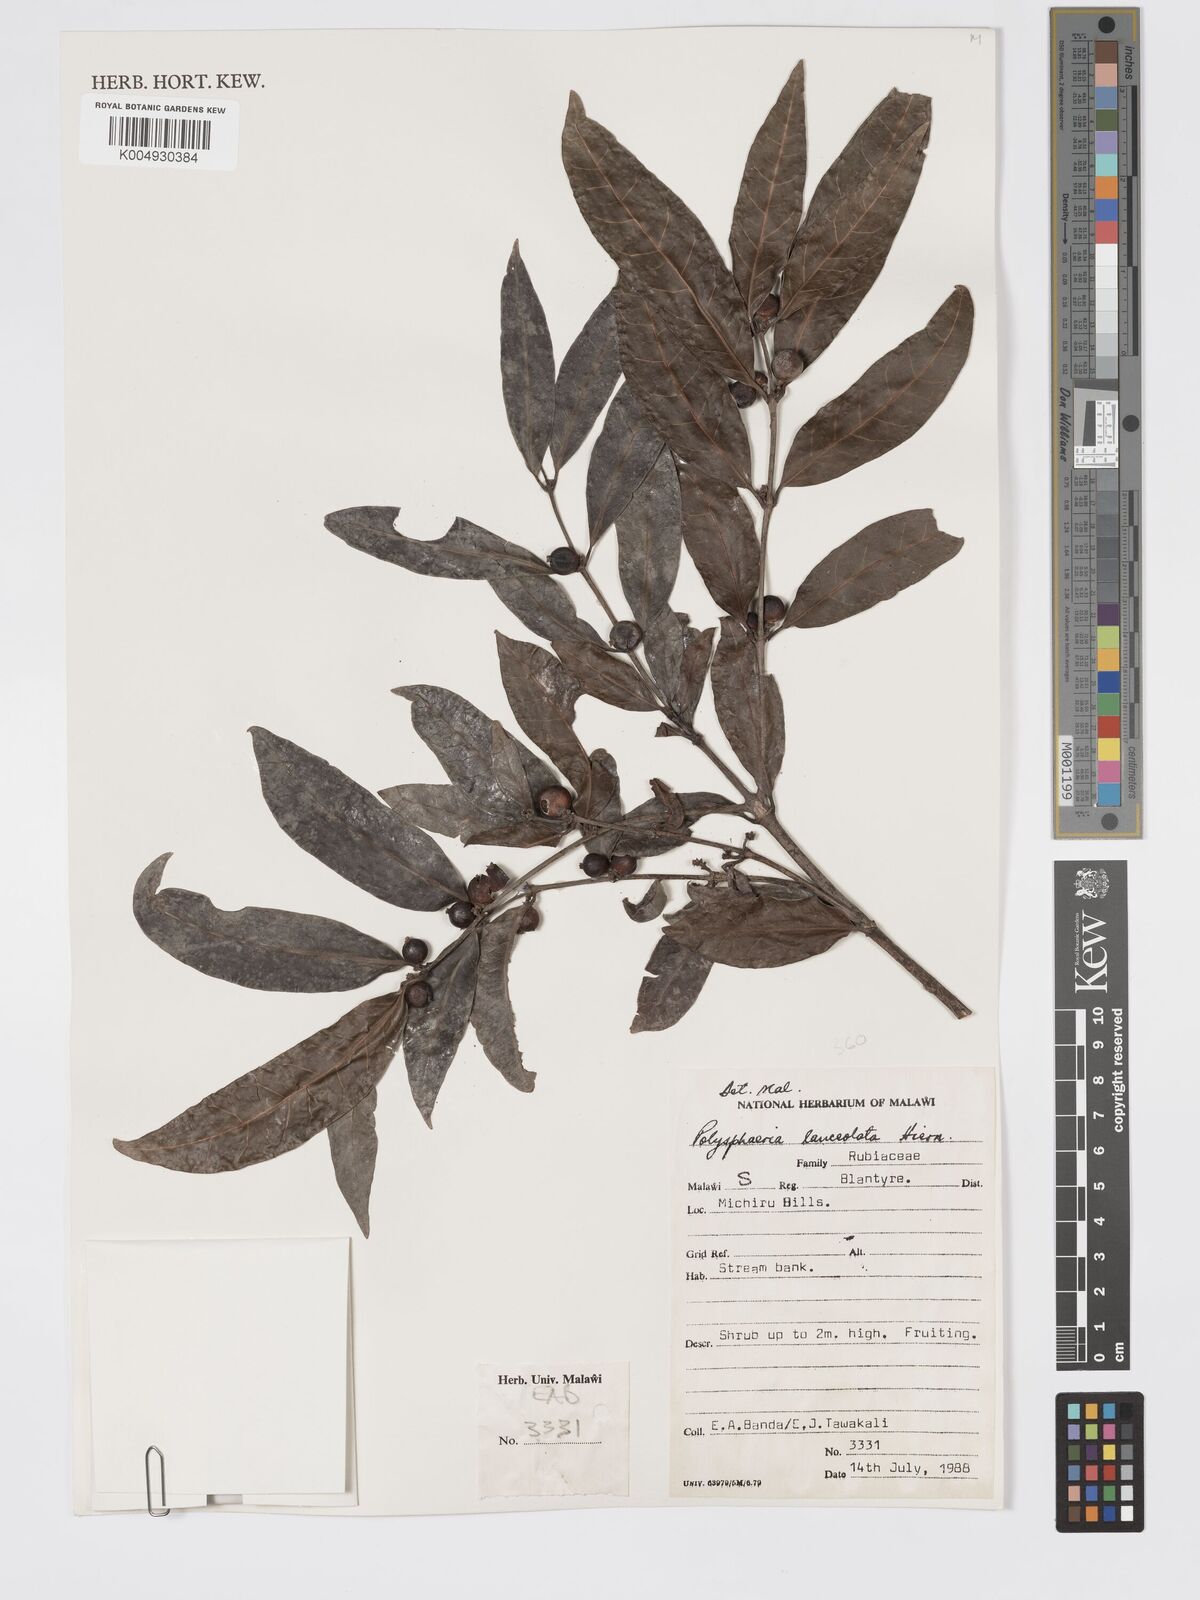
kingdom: Plantae
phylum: Tracheophyta
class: Magnoliopsida
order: Gentianales
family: Rubiaceae
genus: Polysphaeria
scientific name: Polysphaeria lanceolata
